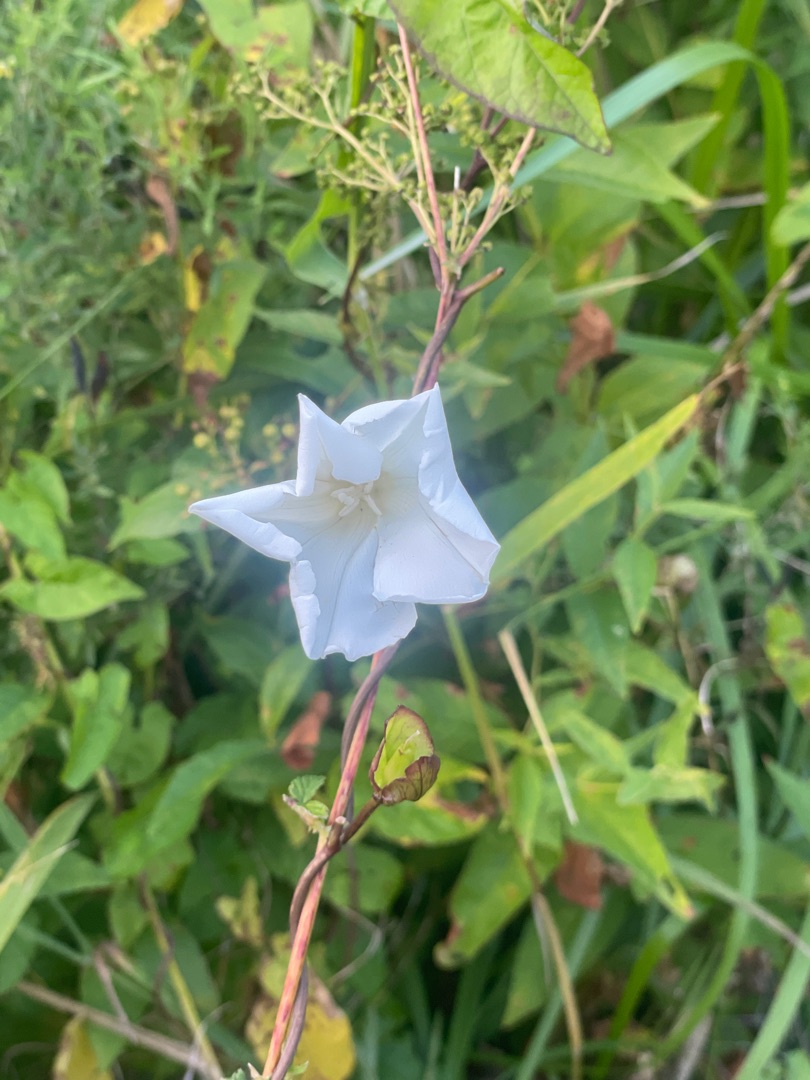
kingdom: Plantae
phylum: Tracheophyta
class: Magnoliopsida
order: Solanales
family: Convolvulaceae
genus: Calystegia
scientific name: Calystegia sepium
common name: Gærde-snerle
